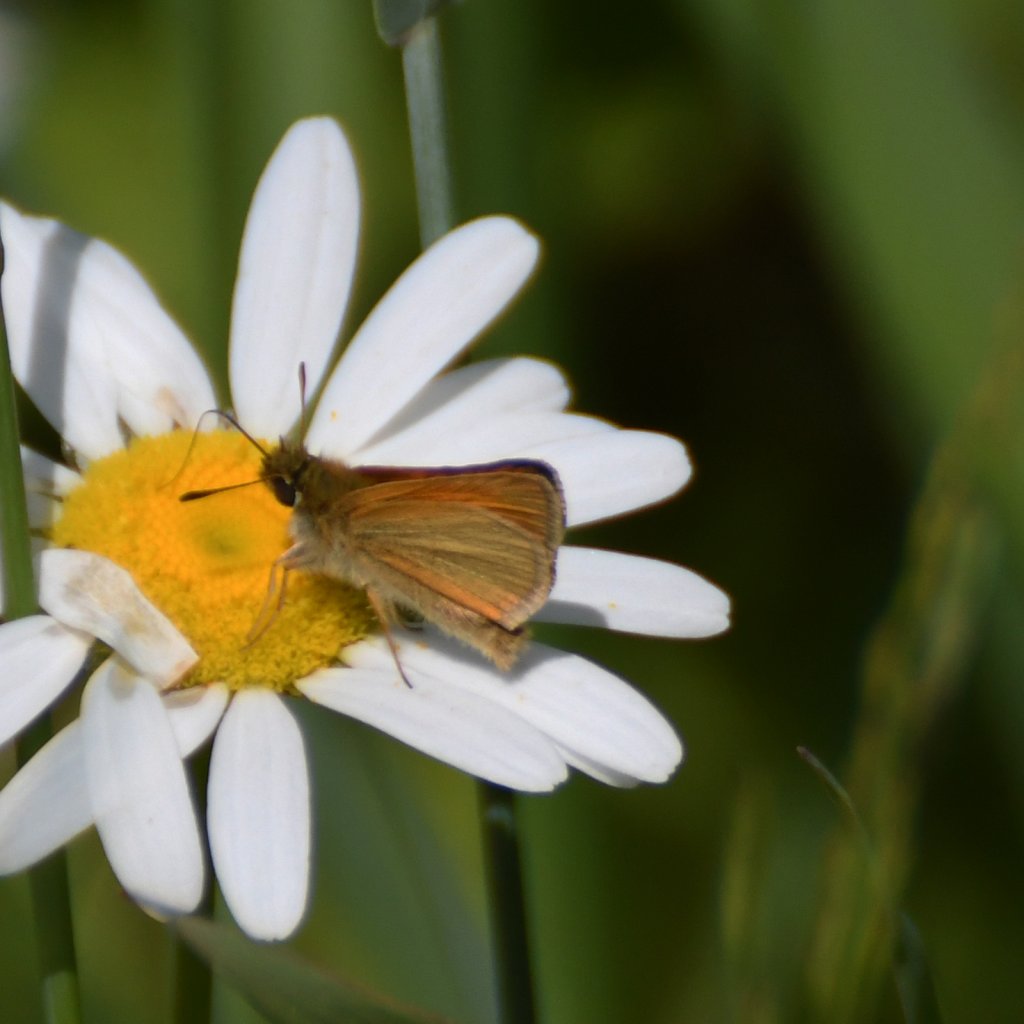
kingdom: Animalia
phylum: Arthropoda
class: Insecta
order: Lepidoptera
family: Hesperiidae
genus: Thymelicus
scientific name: Thymelicus lineola
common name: European Skipper
